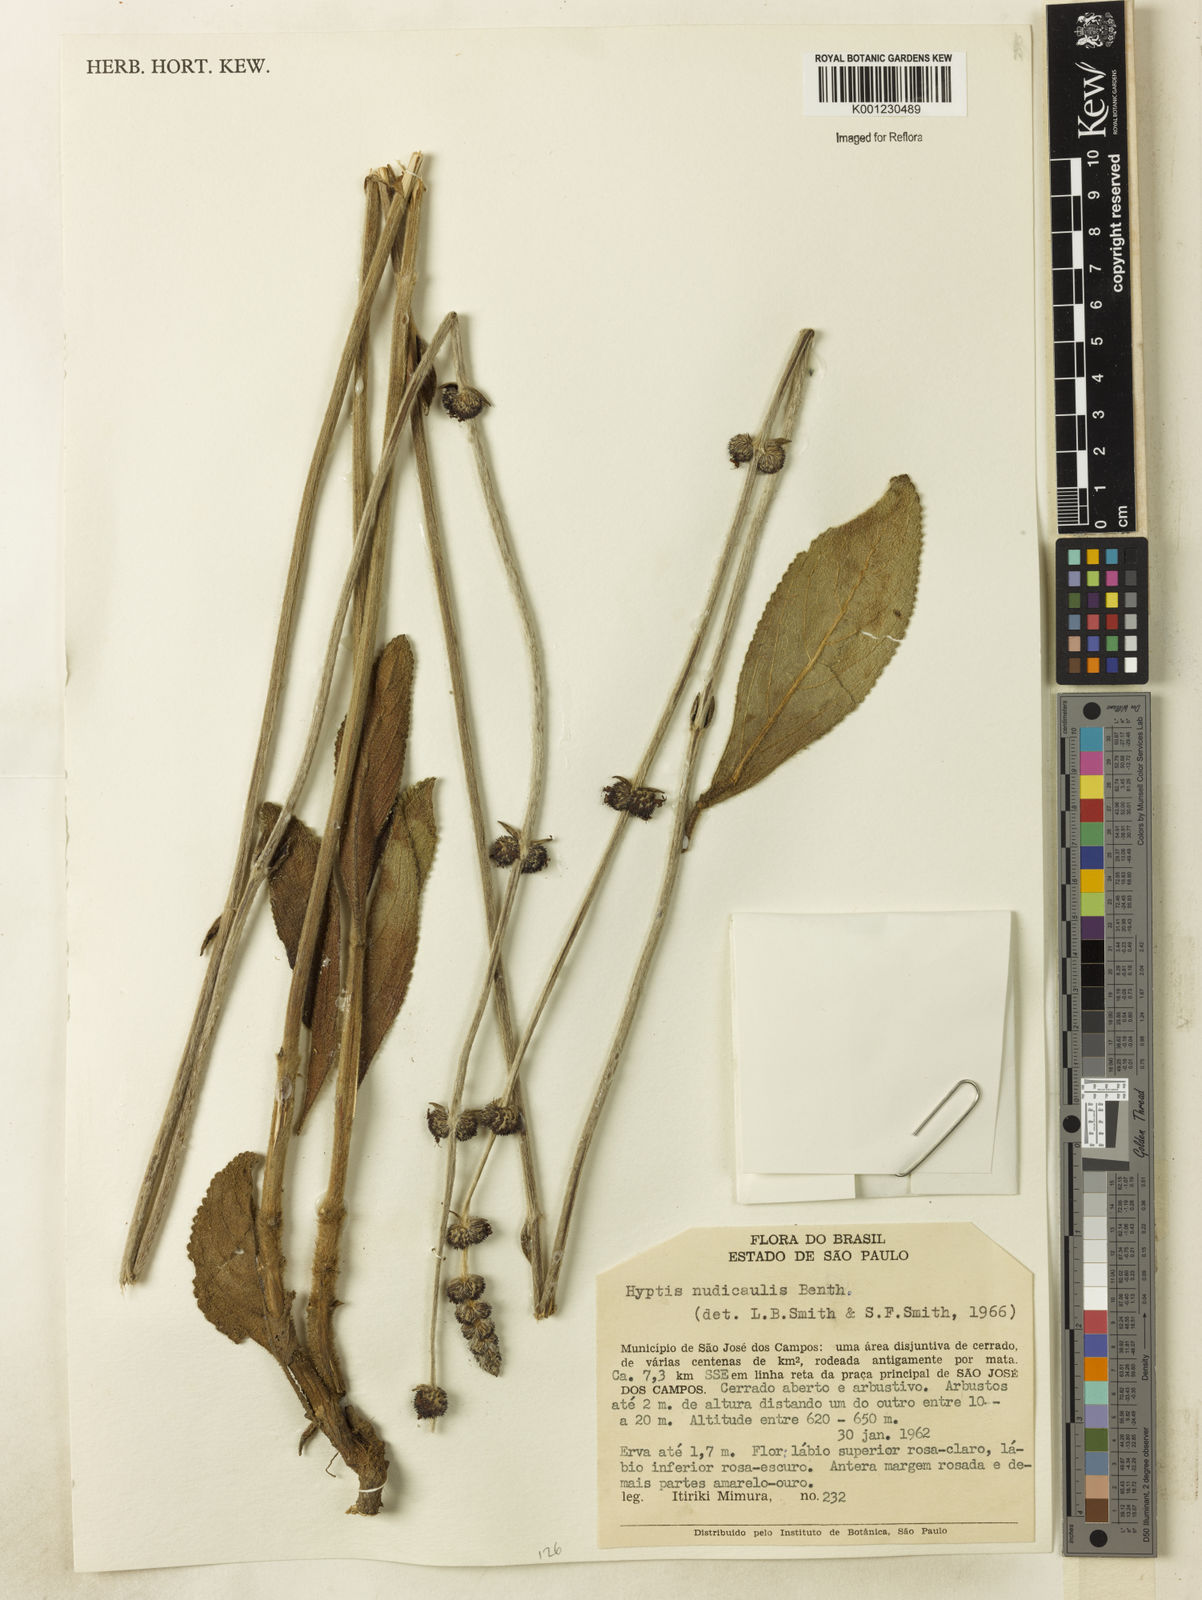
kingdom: Plantae
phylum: Tracheophyta
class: Magnoliopsida
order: Lamiales
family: Lamiaceae
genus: Hyptis
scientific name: Hyptis nudicaulis
